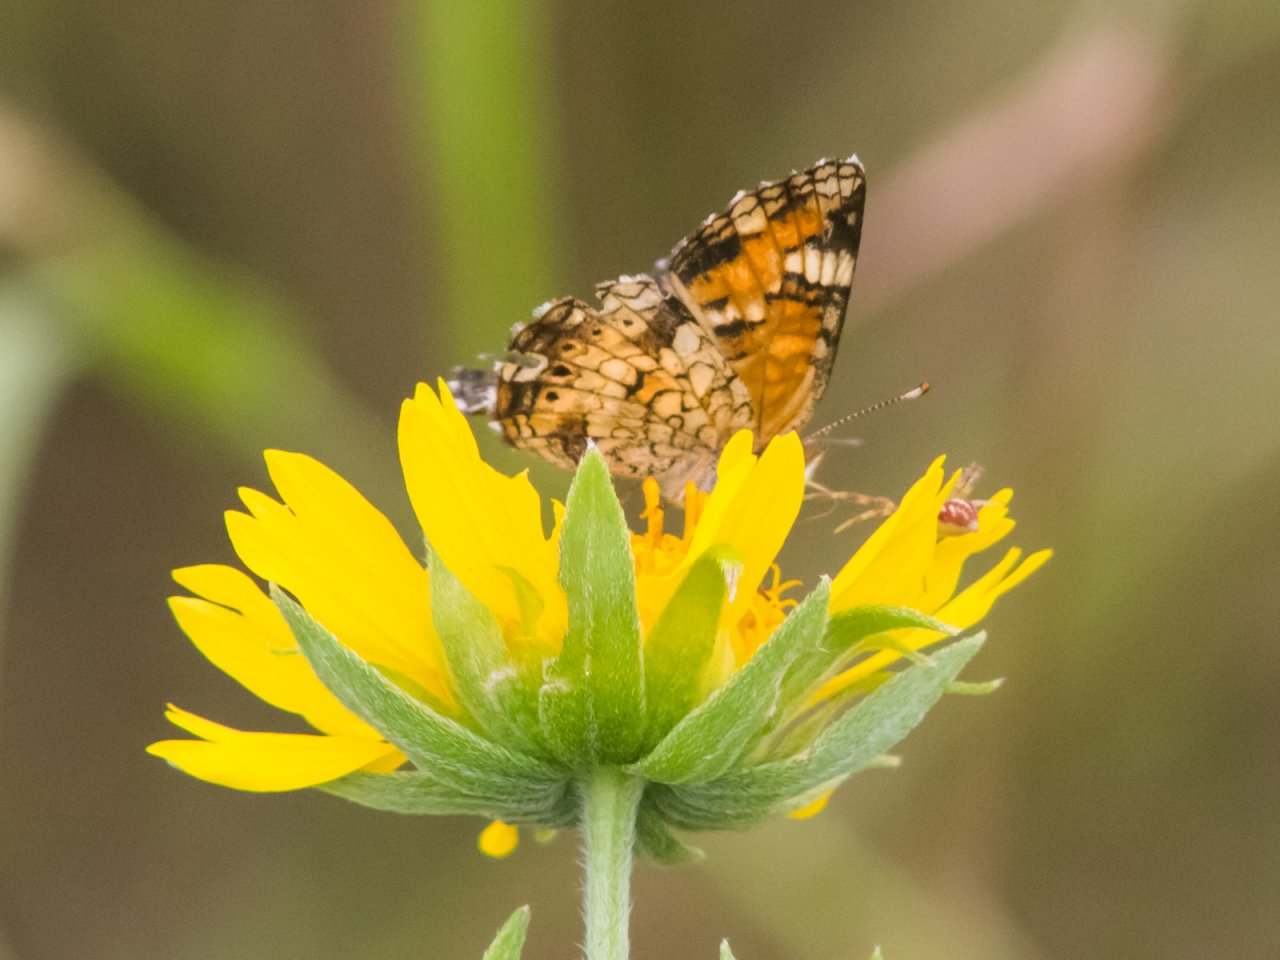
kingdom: Animalia
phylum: Arthropoda
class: Insecta
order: Lepidoptera
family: Nymphalidae
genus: Phyciodes
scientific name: Phyciodes phaon
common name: Phaon Crescent
